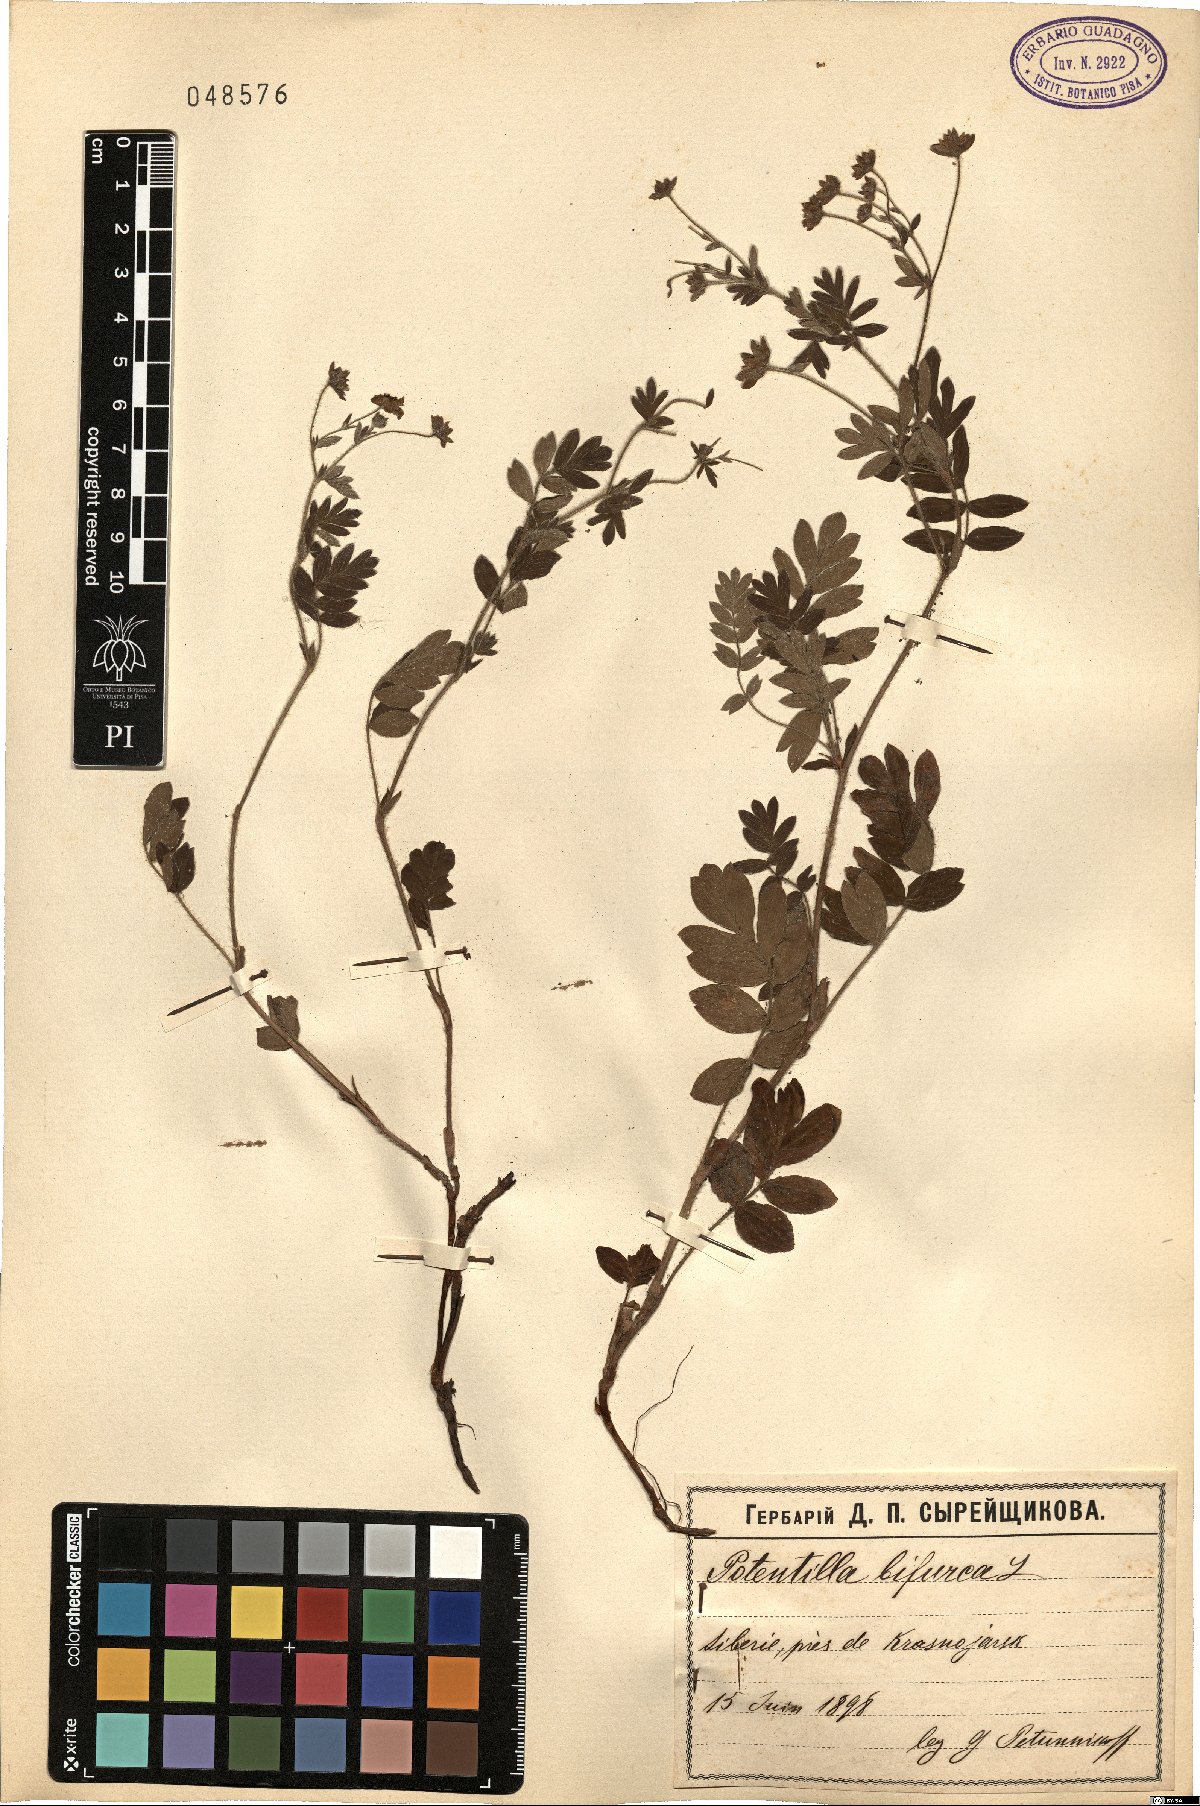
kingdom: Plantae
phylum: Tracheophyta
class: Magnoliopsida
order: Rosales
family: Rosaceae
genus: Sibbaldianthe
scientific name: Sibbaldianthe bifurca
